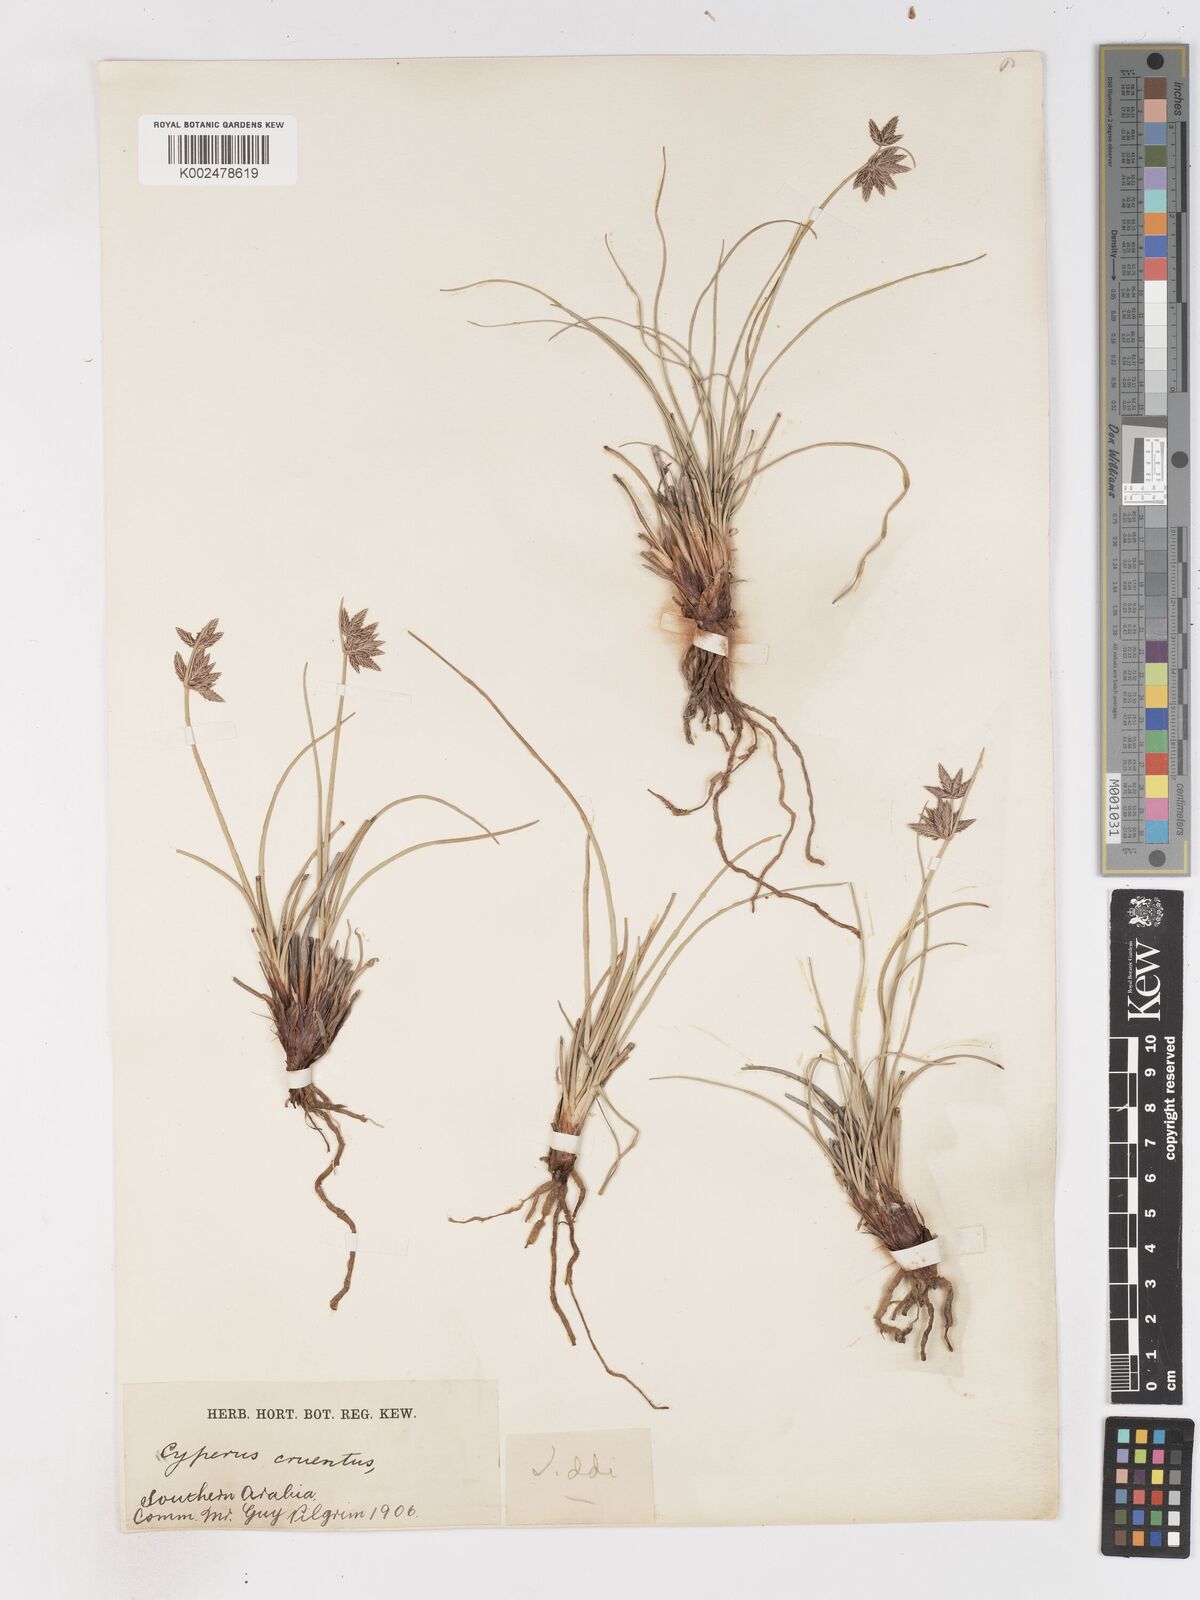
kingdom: Plantae
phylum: Tracheophyta
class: Liliopsida
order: Poales
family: Cyperaceae
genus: Cyperus
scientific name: Cyperus conglomeratus
